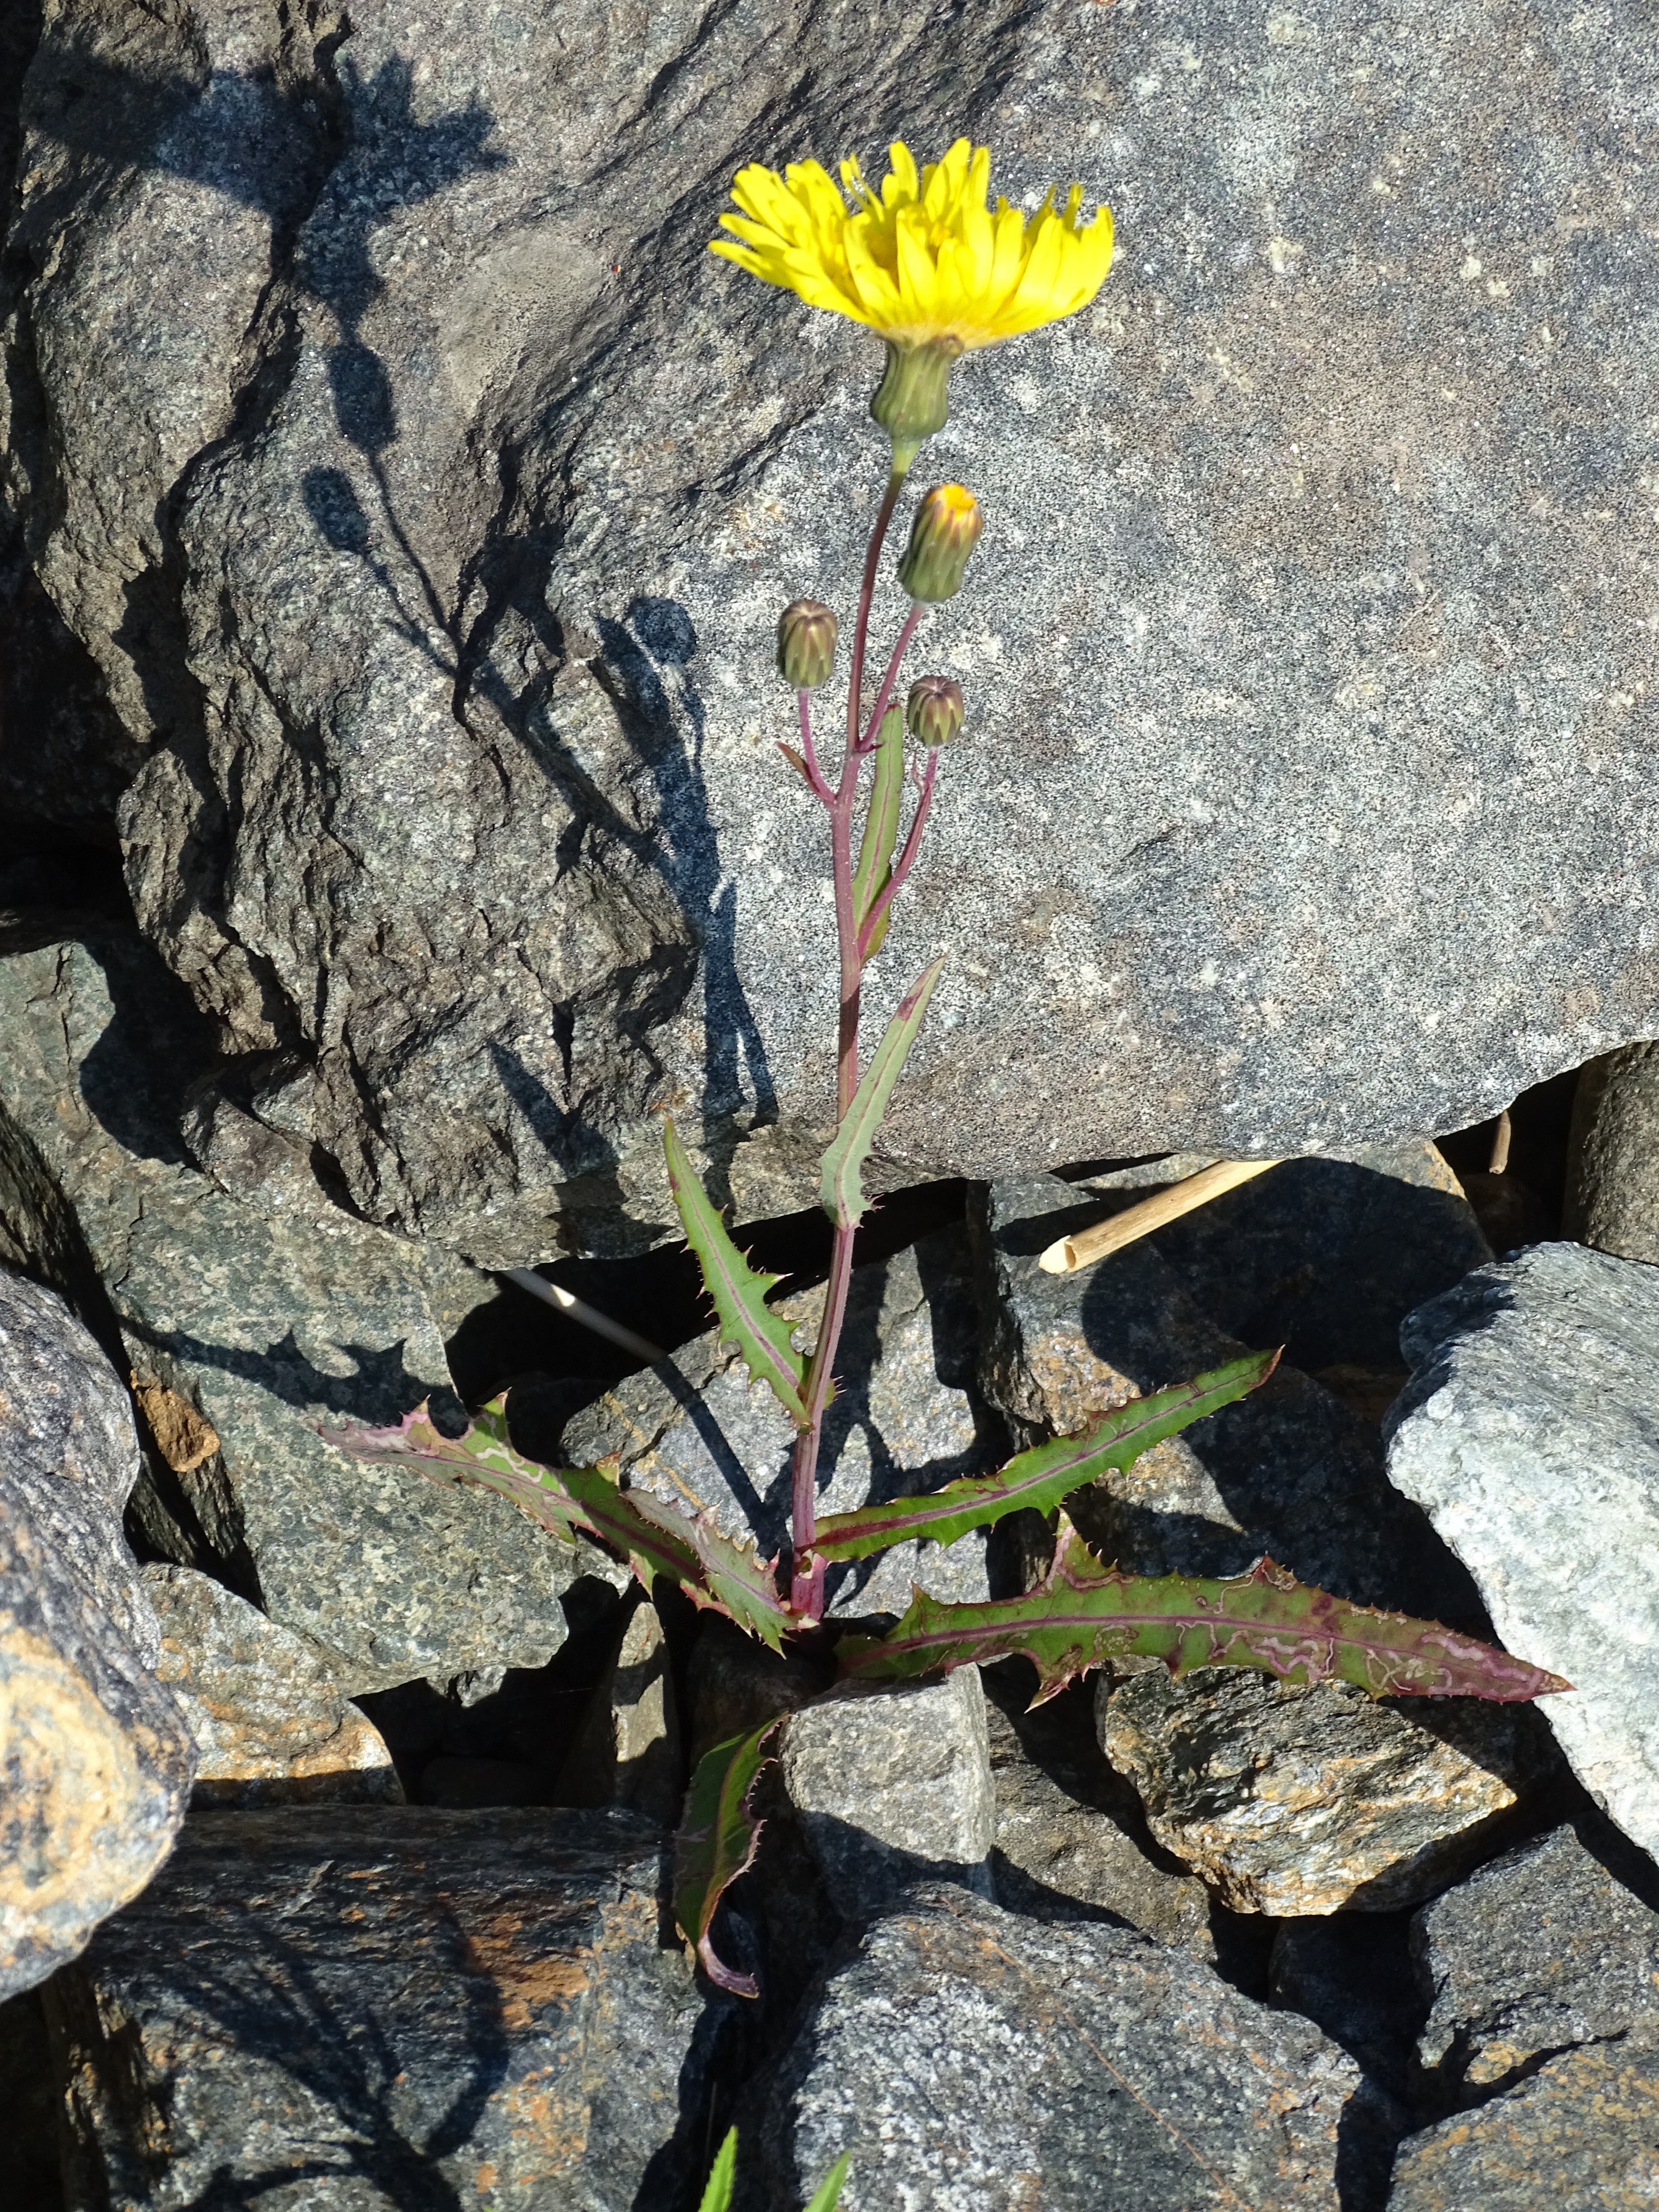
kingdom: Plantae
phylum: Tracheophyta
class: Magnoliopsida
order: Asterales
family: Asteraceae
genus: Sonchus
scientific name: Sonchus maritimus
